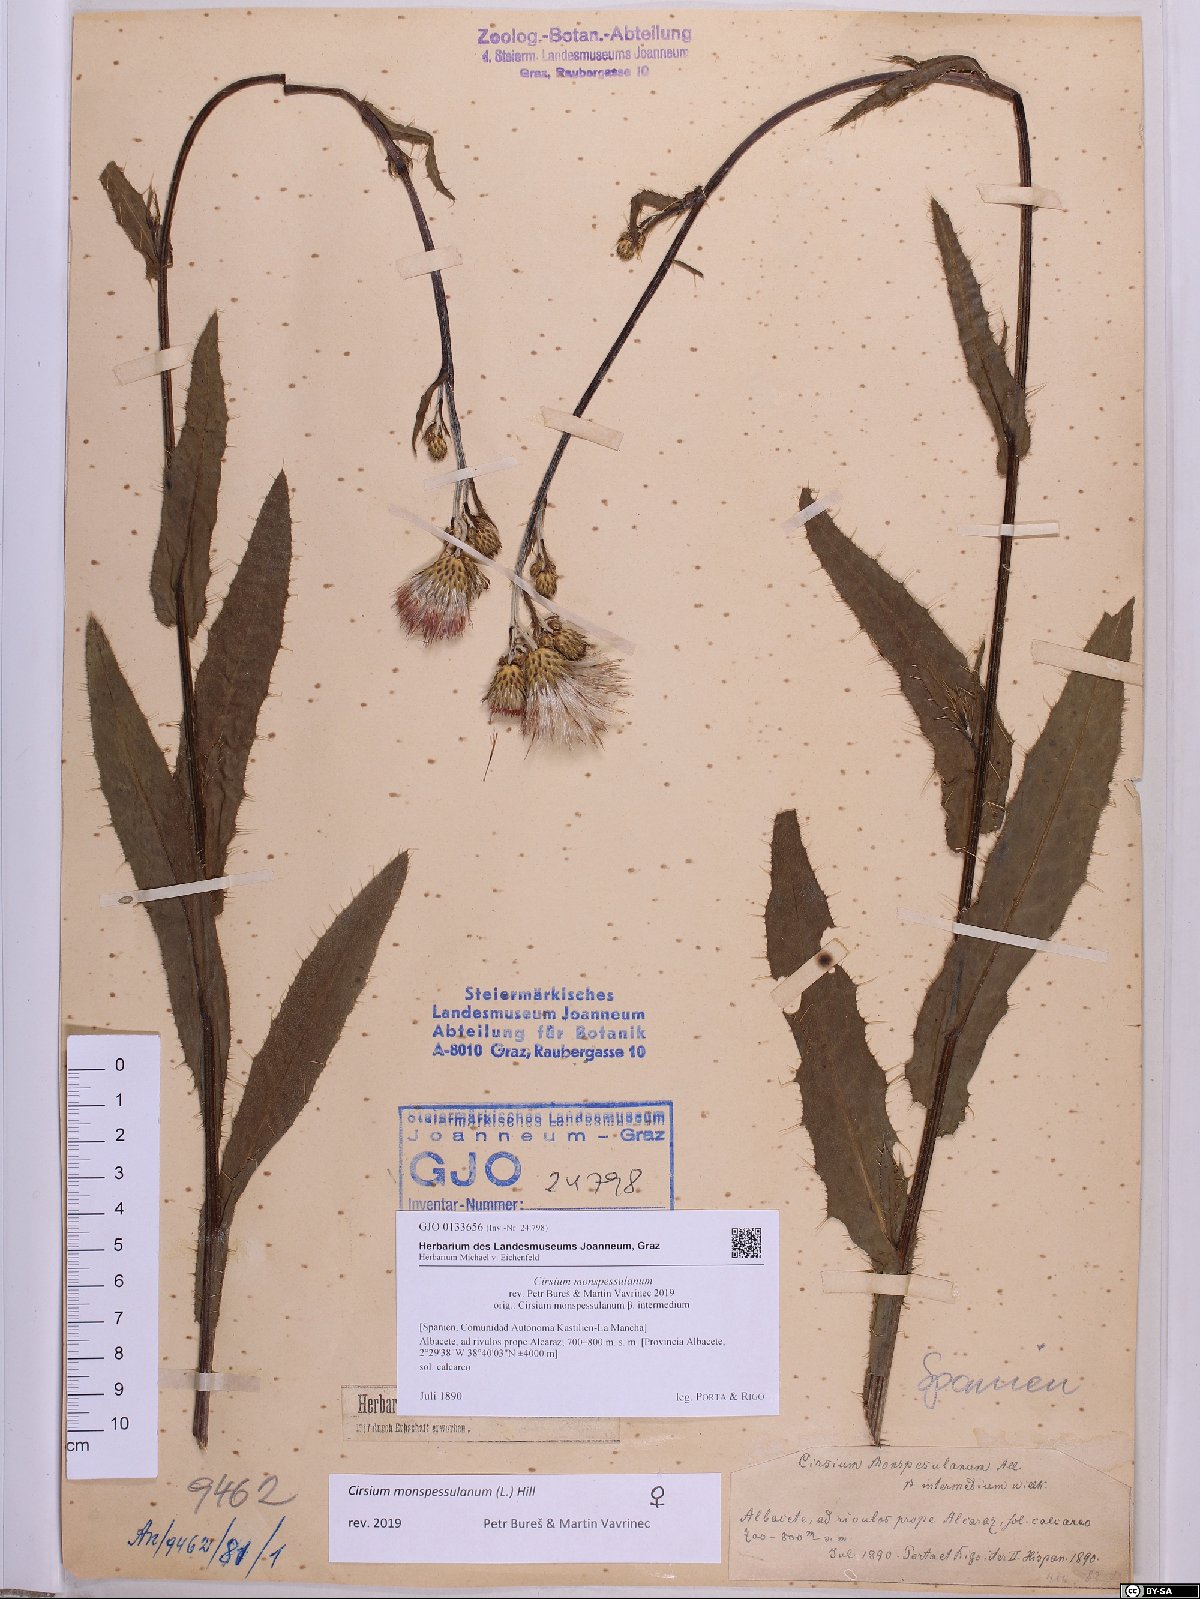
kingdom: Plantae
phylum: Tracheophyta
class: Magnoliopsida
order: Asterales
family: Asteraceae
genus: Cirsium
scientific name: Cirsium monspessulanum
